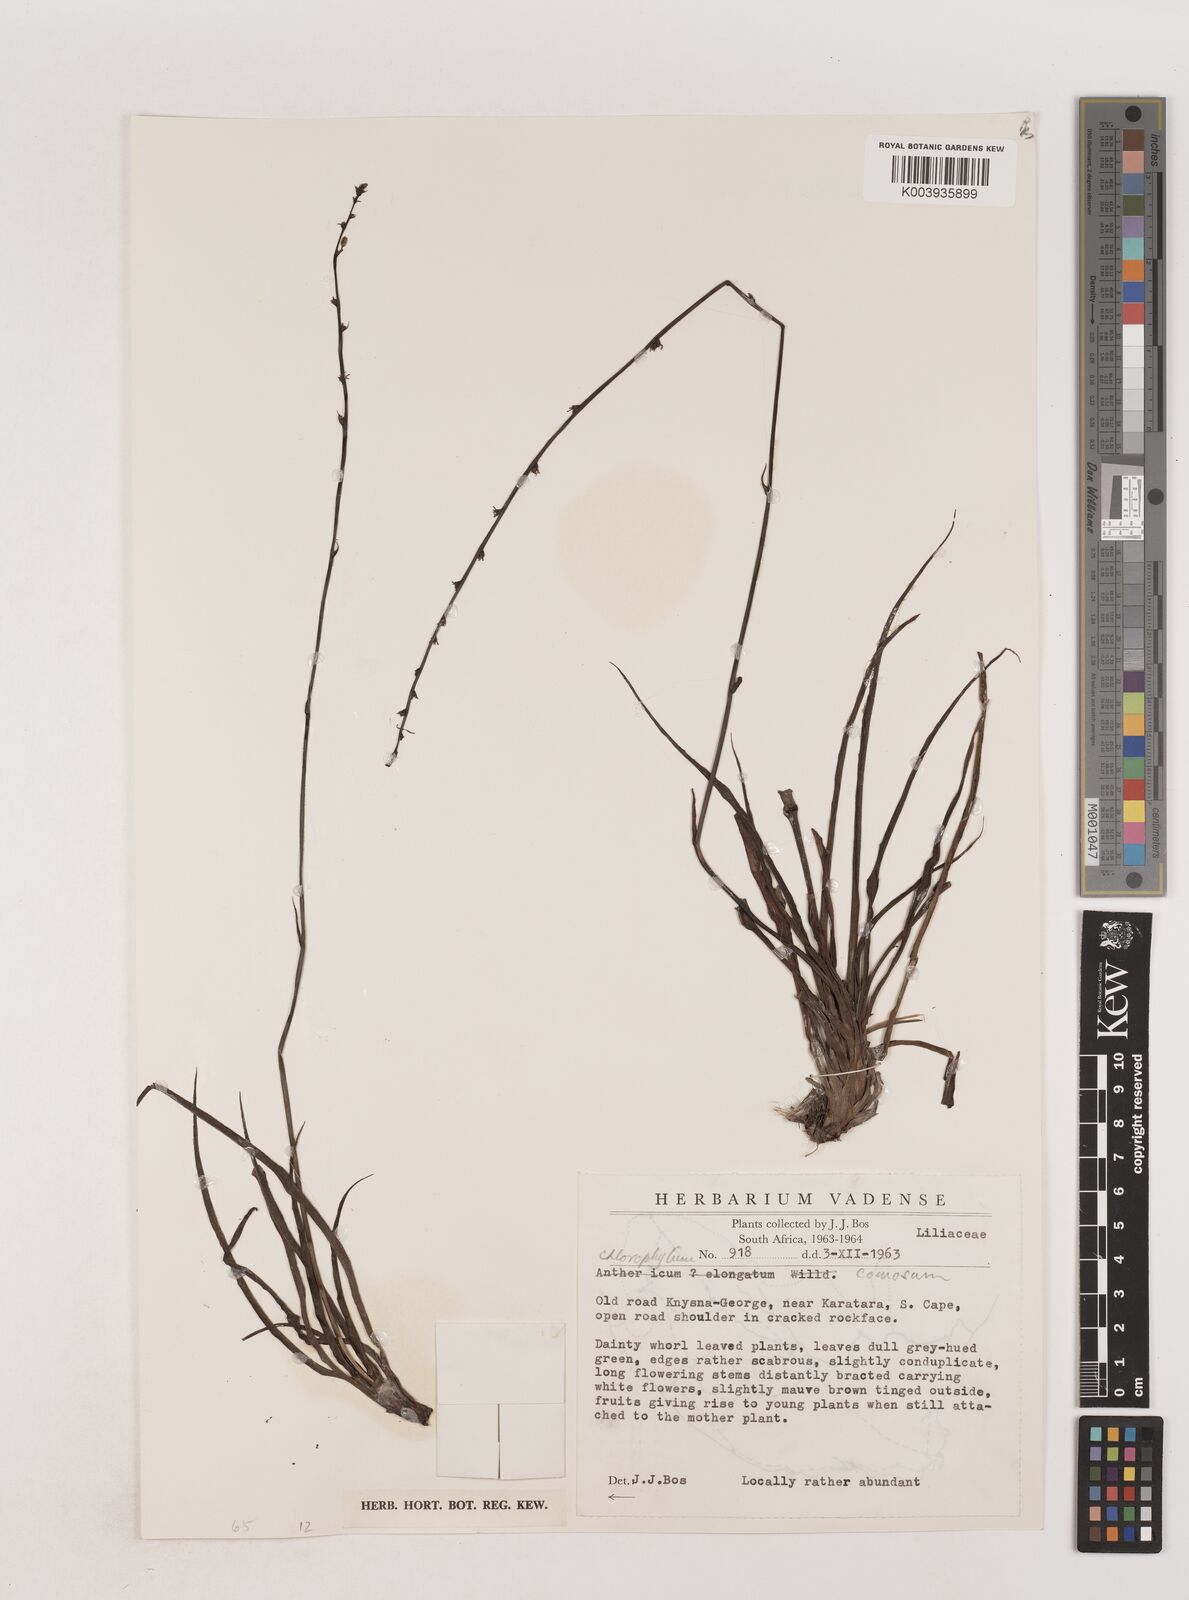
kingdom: Plantae
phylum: Tracheophyta
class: Liliopsida
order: Asparagales
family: Asparagaceae
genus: Chlorophytum
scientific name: Chlorophytum comosum
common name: Spider plant
